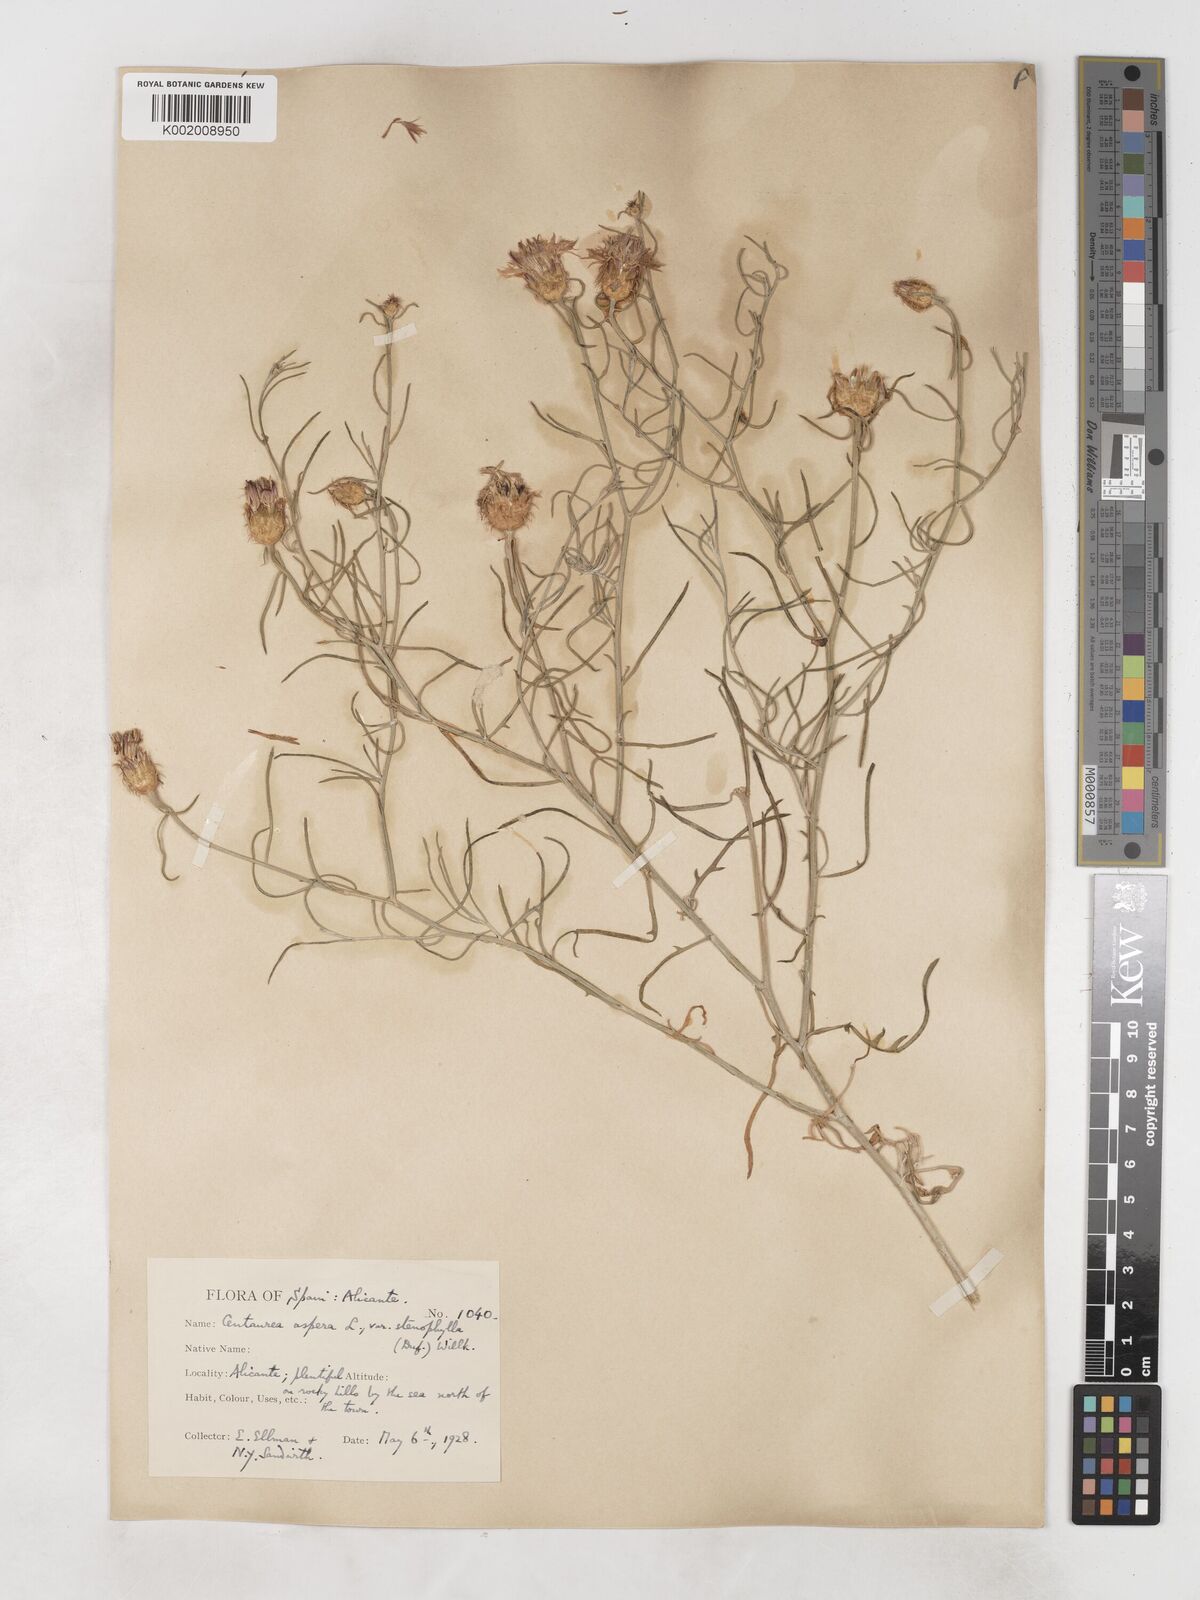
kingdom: Plantae
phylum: Tracheophyta
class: Magnoliopsida
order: Asterales
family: Asteraceae
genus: Centaurea
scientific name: Centaurea aspera
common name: Rough star-thistle
